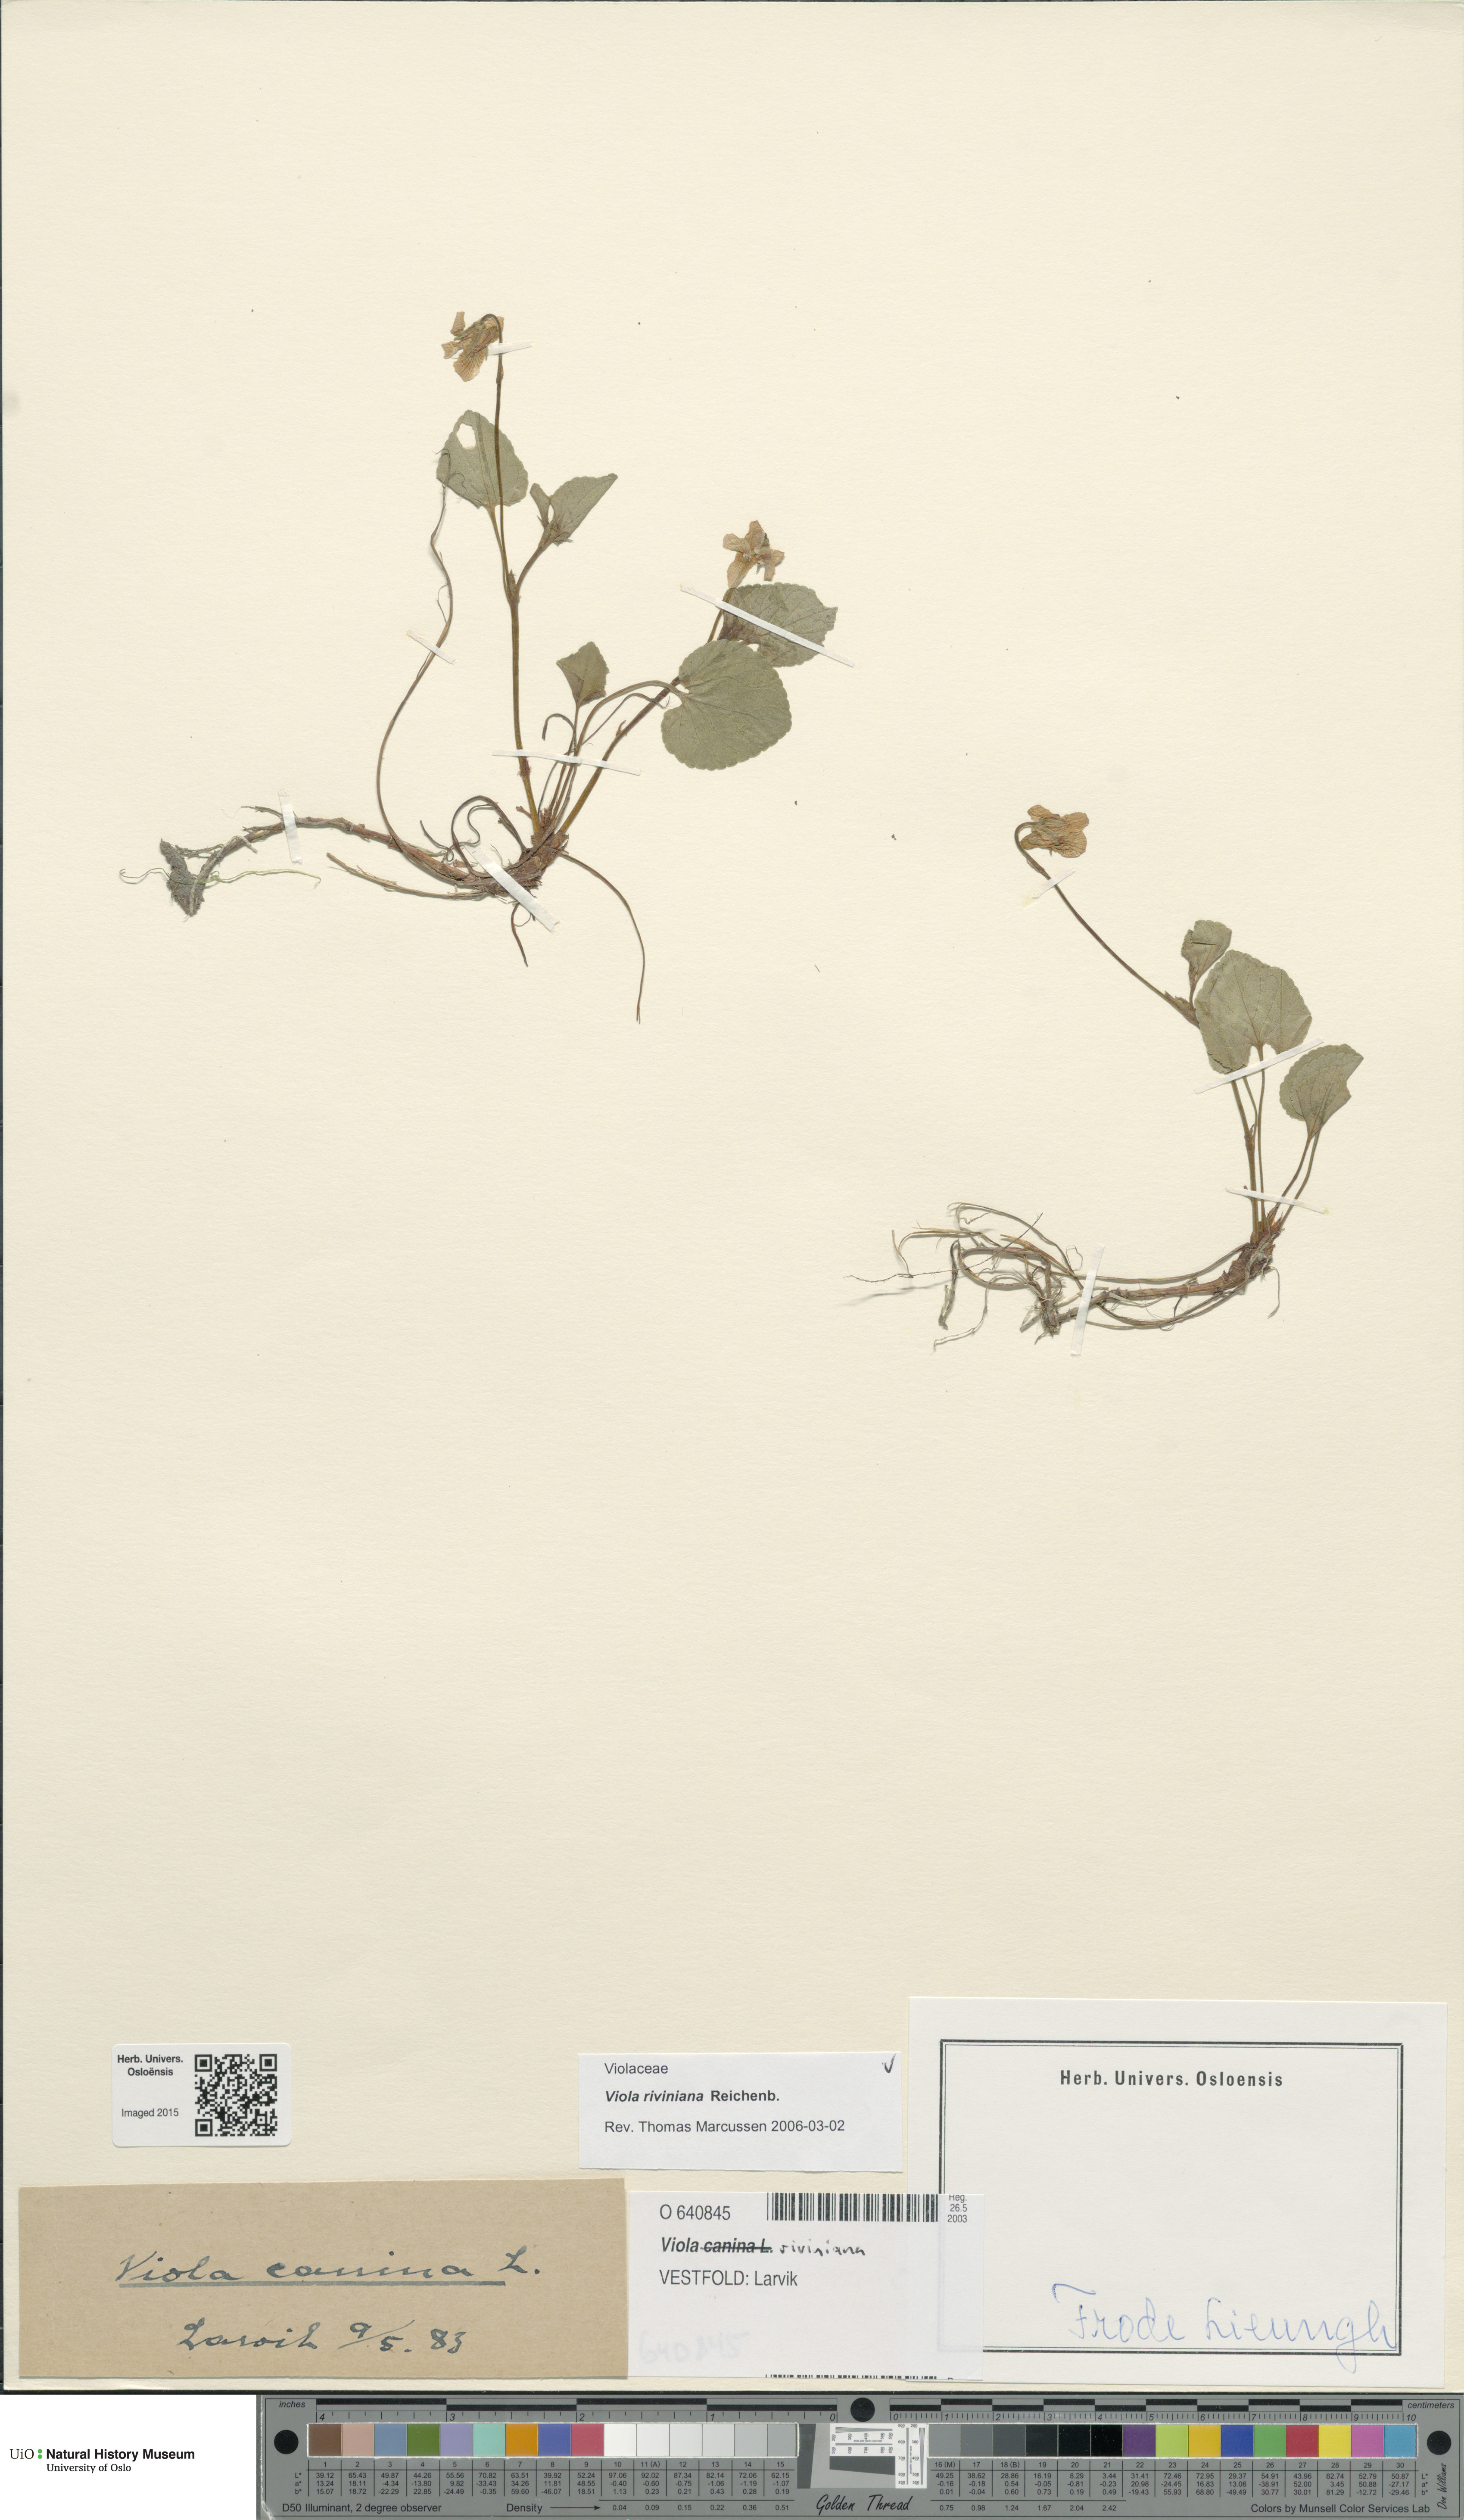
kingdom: Plantae
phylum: Tracheophyta
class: Magnoliopsida
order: Malpighiales
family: Violaceae
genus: Viola
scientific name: Viola riviniana
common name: Common dog-violet
